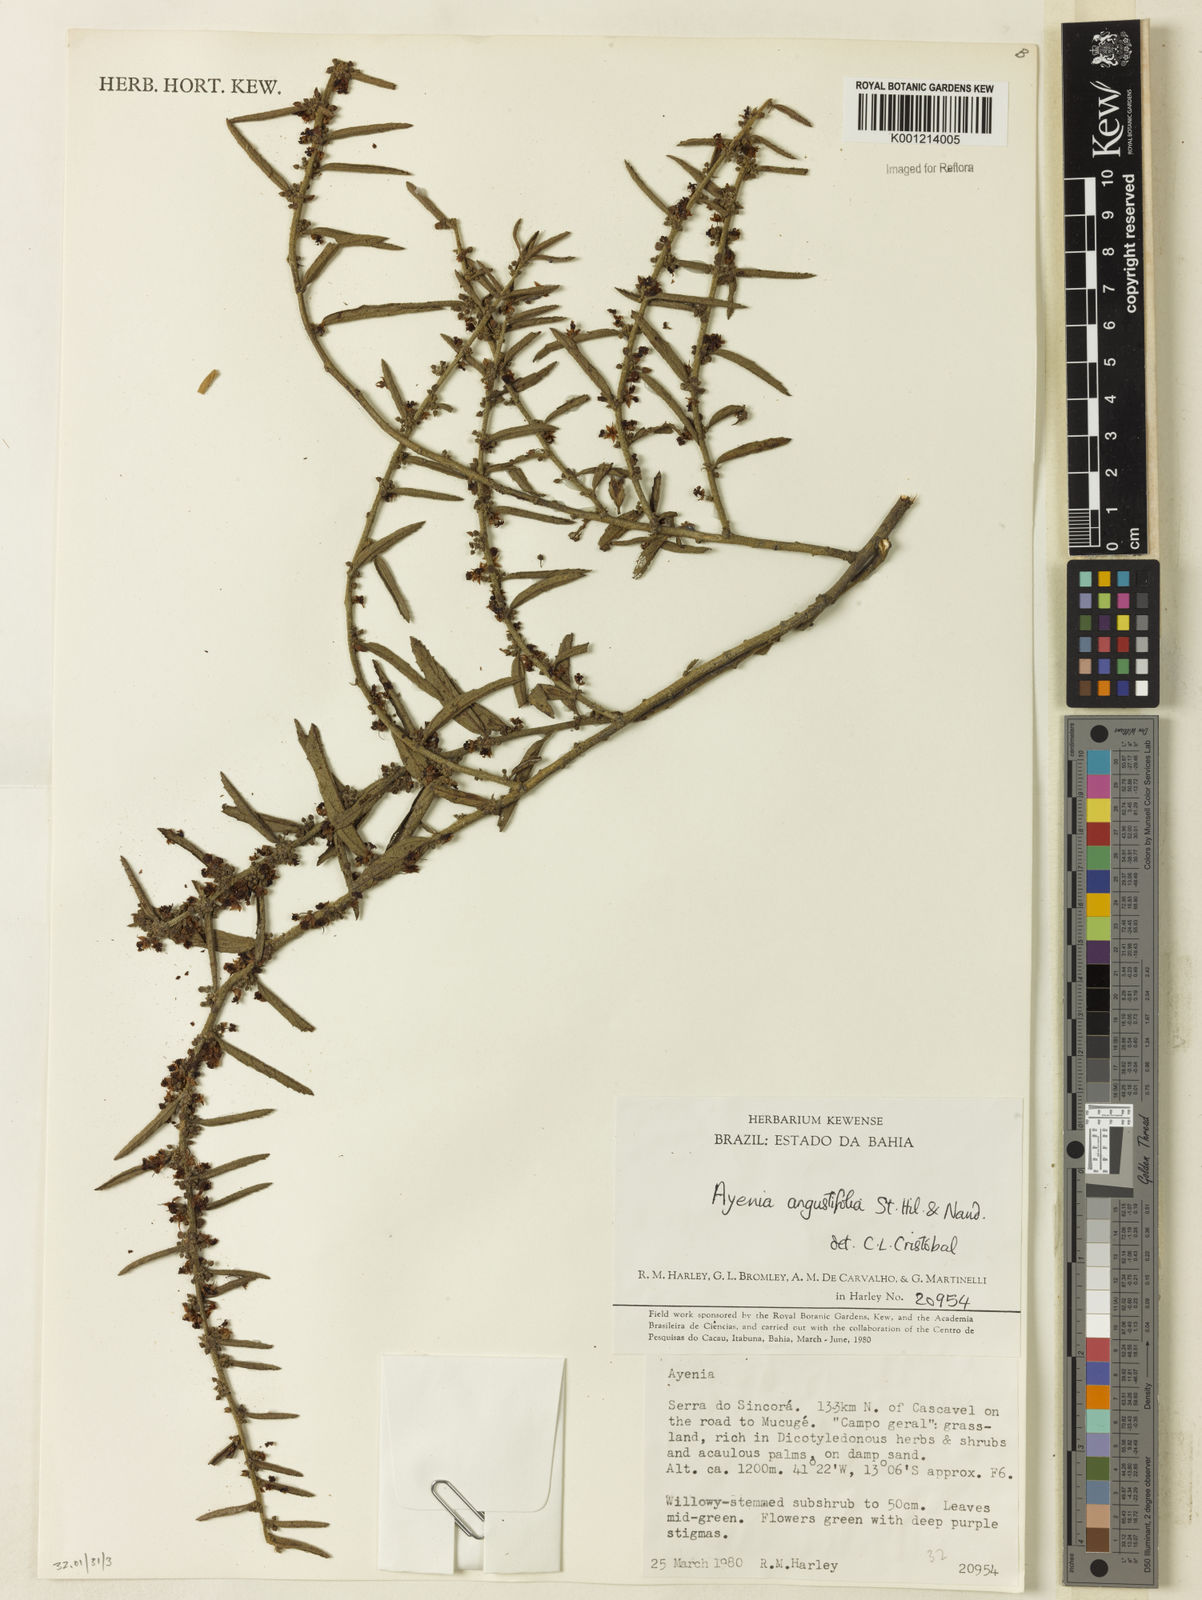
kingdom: Plantae
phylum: Tracheophyta
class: Magnoliopsida
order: Malvales
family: Malvaceae
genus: Ayenia
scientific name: Ayenia angustifolia
